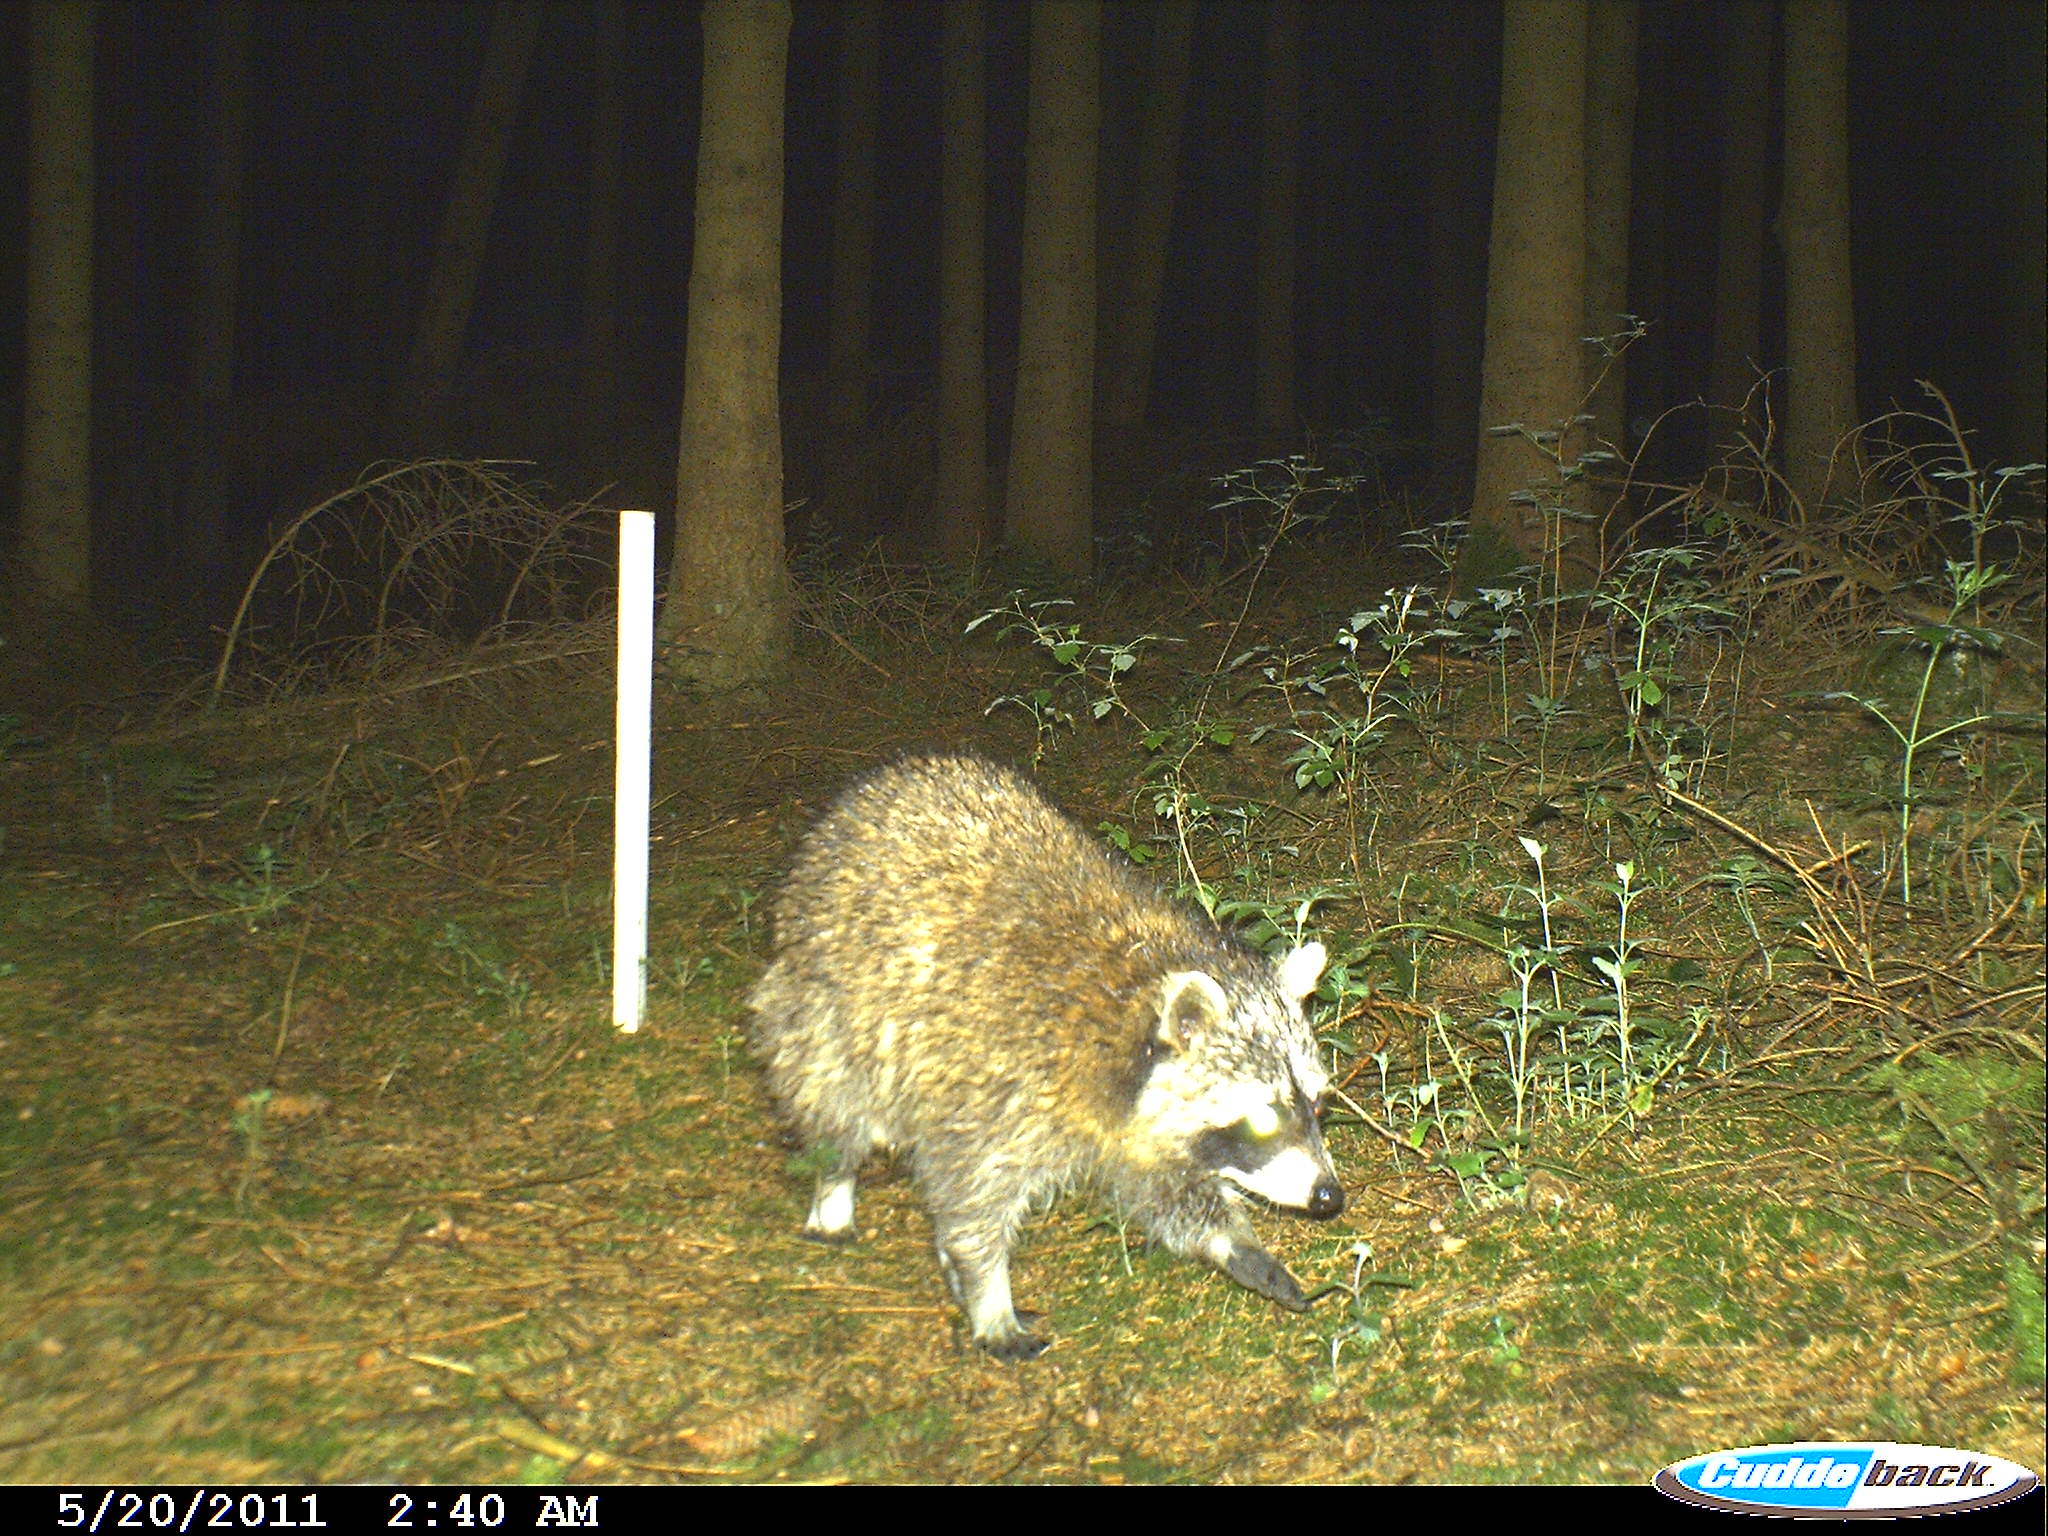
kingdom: Animalia
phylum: Chordata
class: Mammalia
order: Carnivora
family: Procyonidae
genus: Procyon
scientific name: Procyon lotor
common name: Raccoon
